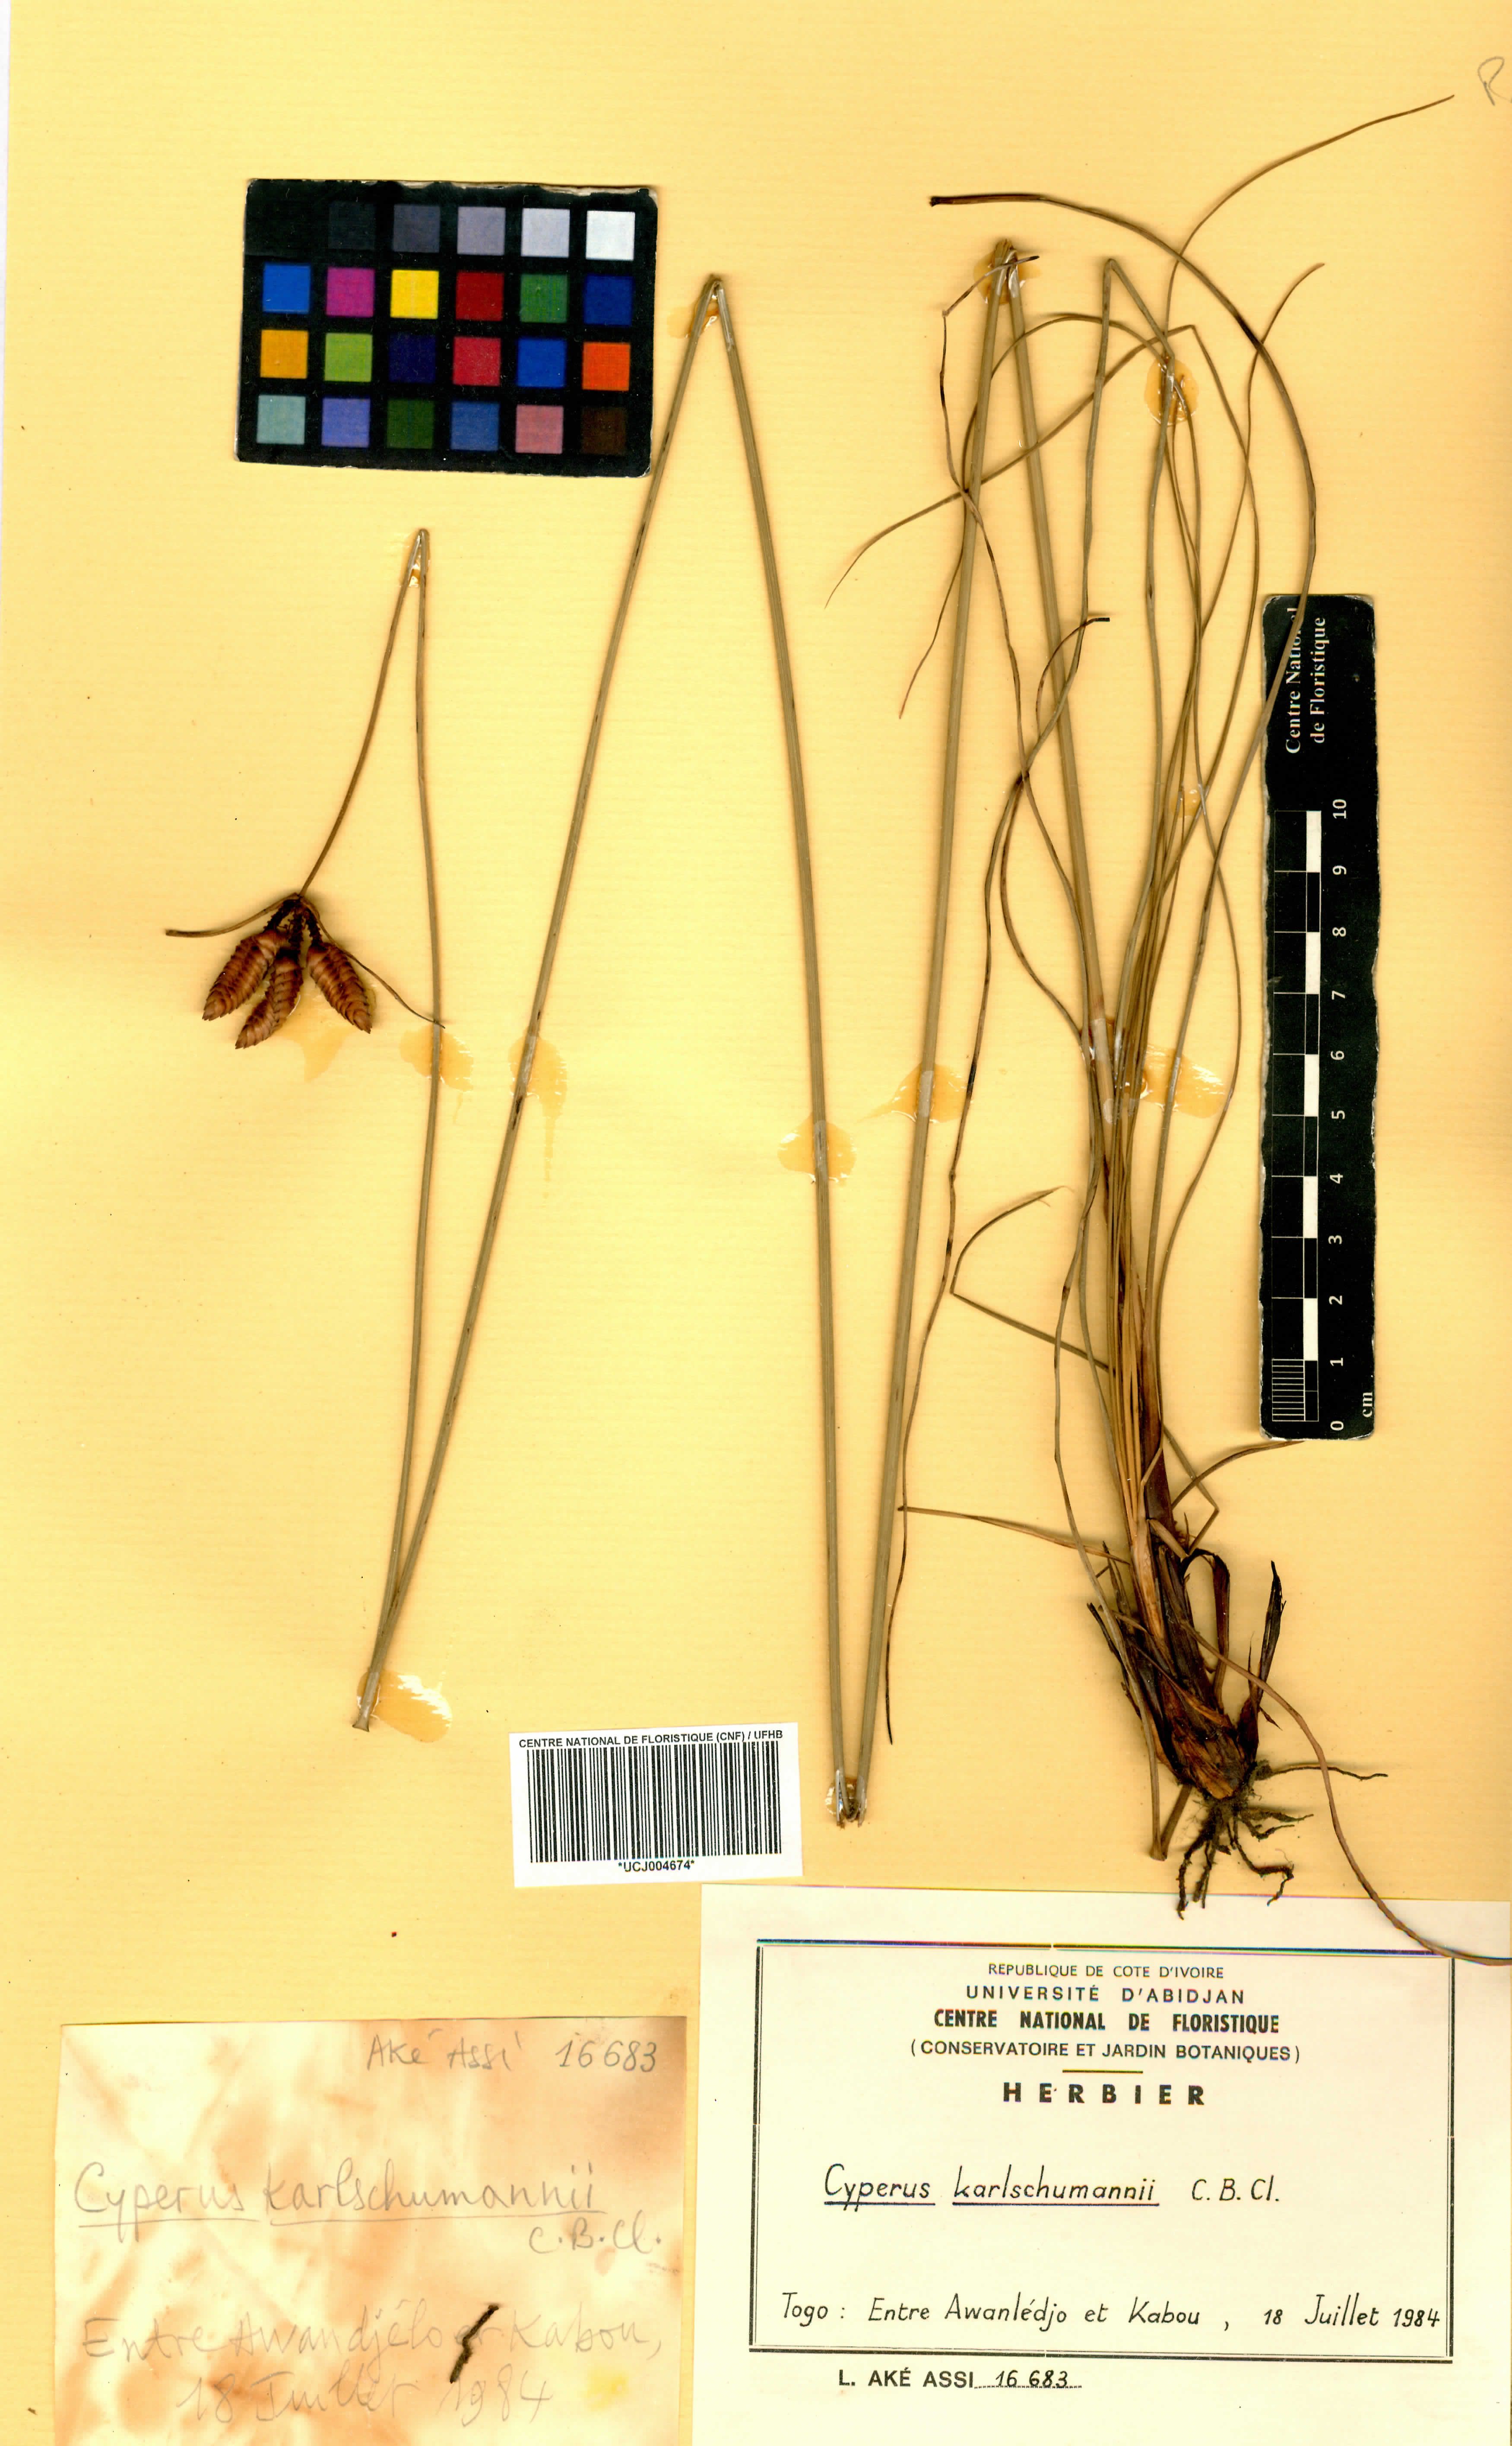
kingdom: Plantae
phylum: Tracheophyta
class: Liliopsida
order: Poales
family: Cyperaceae
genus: Cyperus
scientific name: Cyperus karlschumannii
